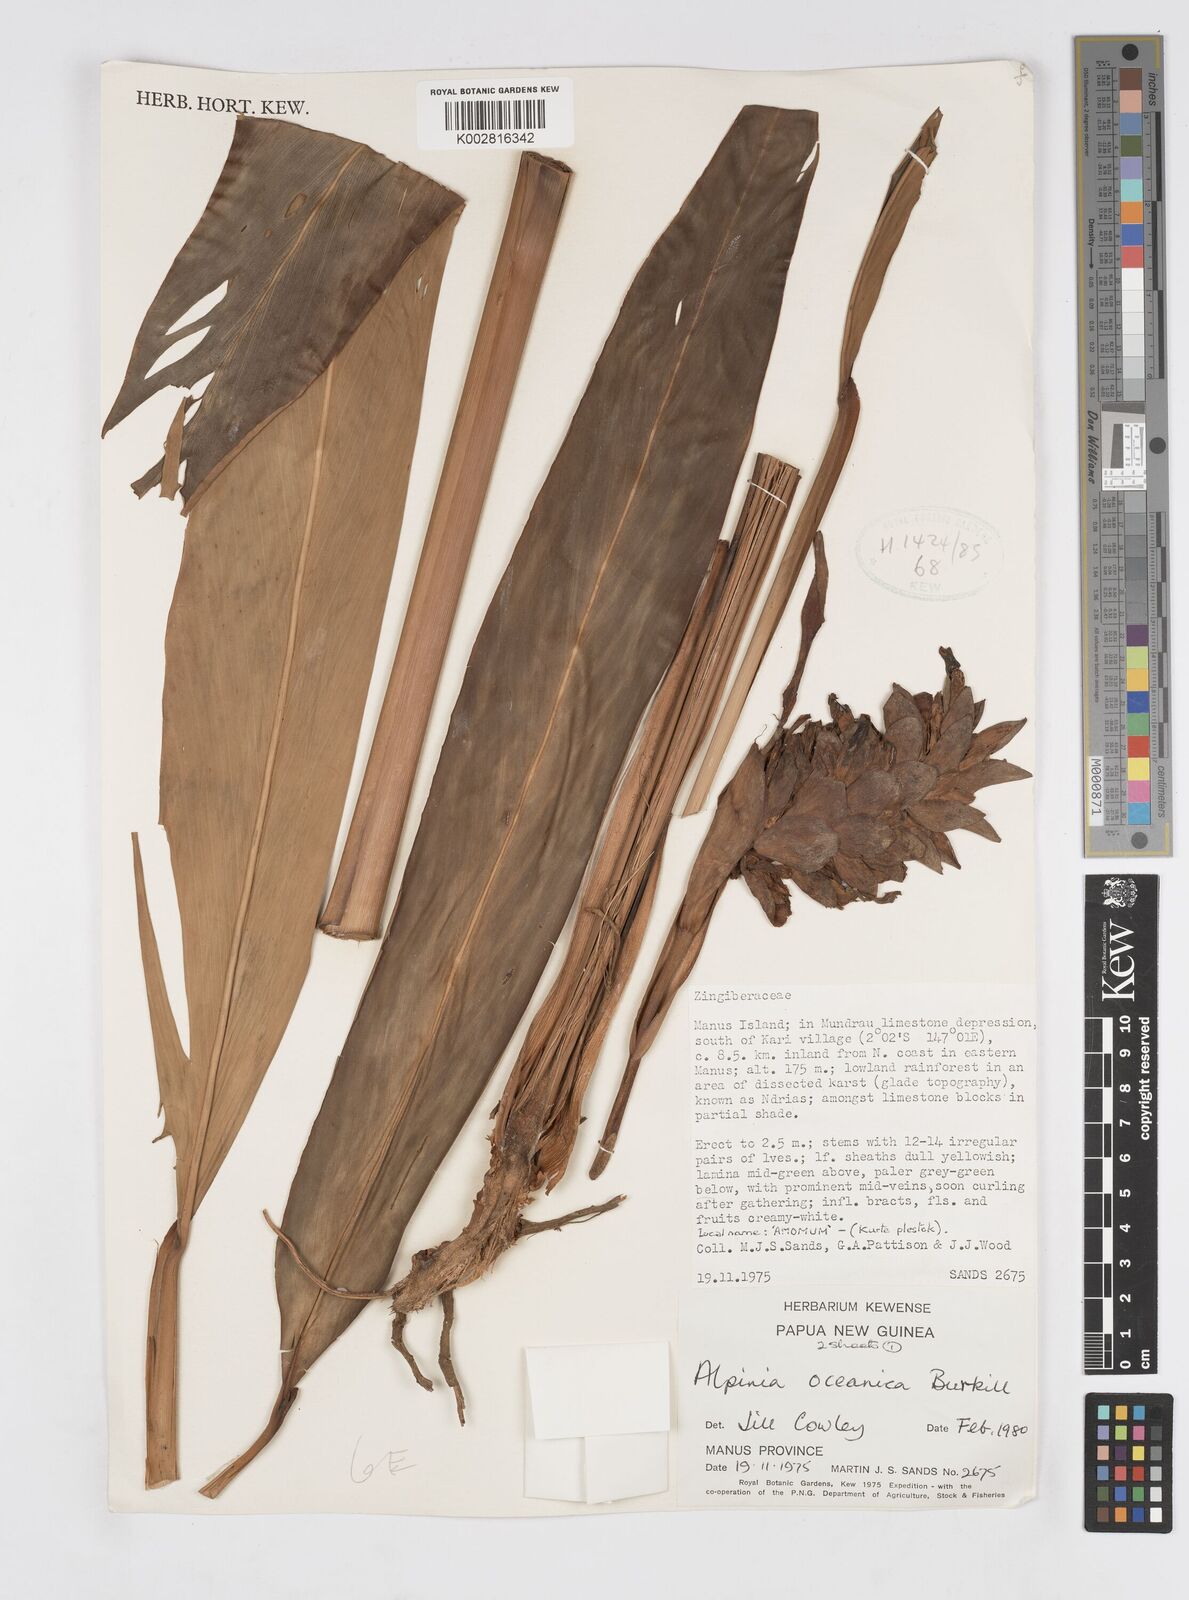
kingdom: Plantae
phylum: Tracheophyta
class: Liliopsida
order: Zingiberales
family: Zingiberaceae
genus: Alpinia
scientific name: Alpinia oceanica
